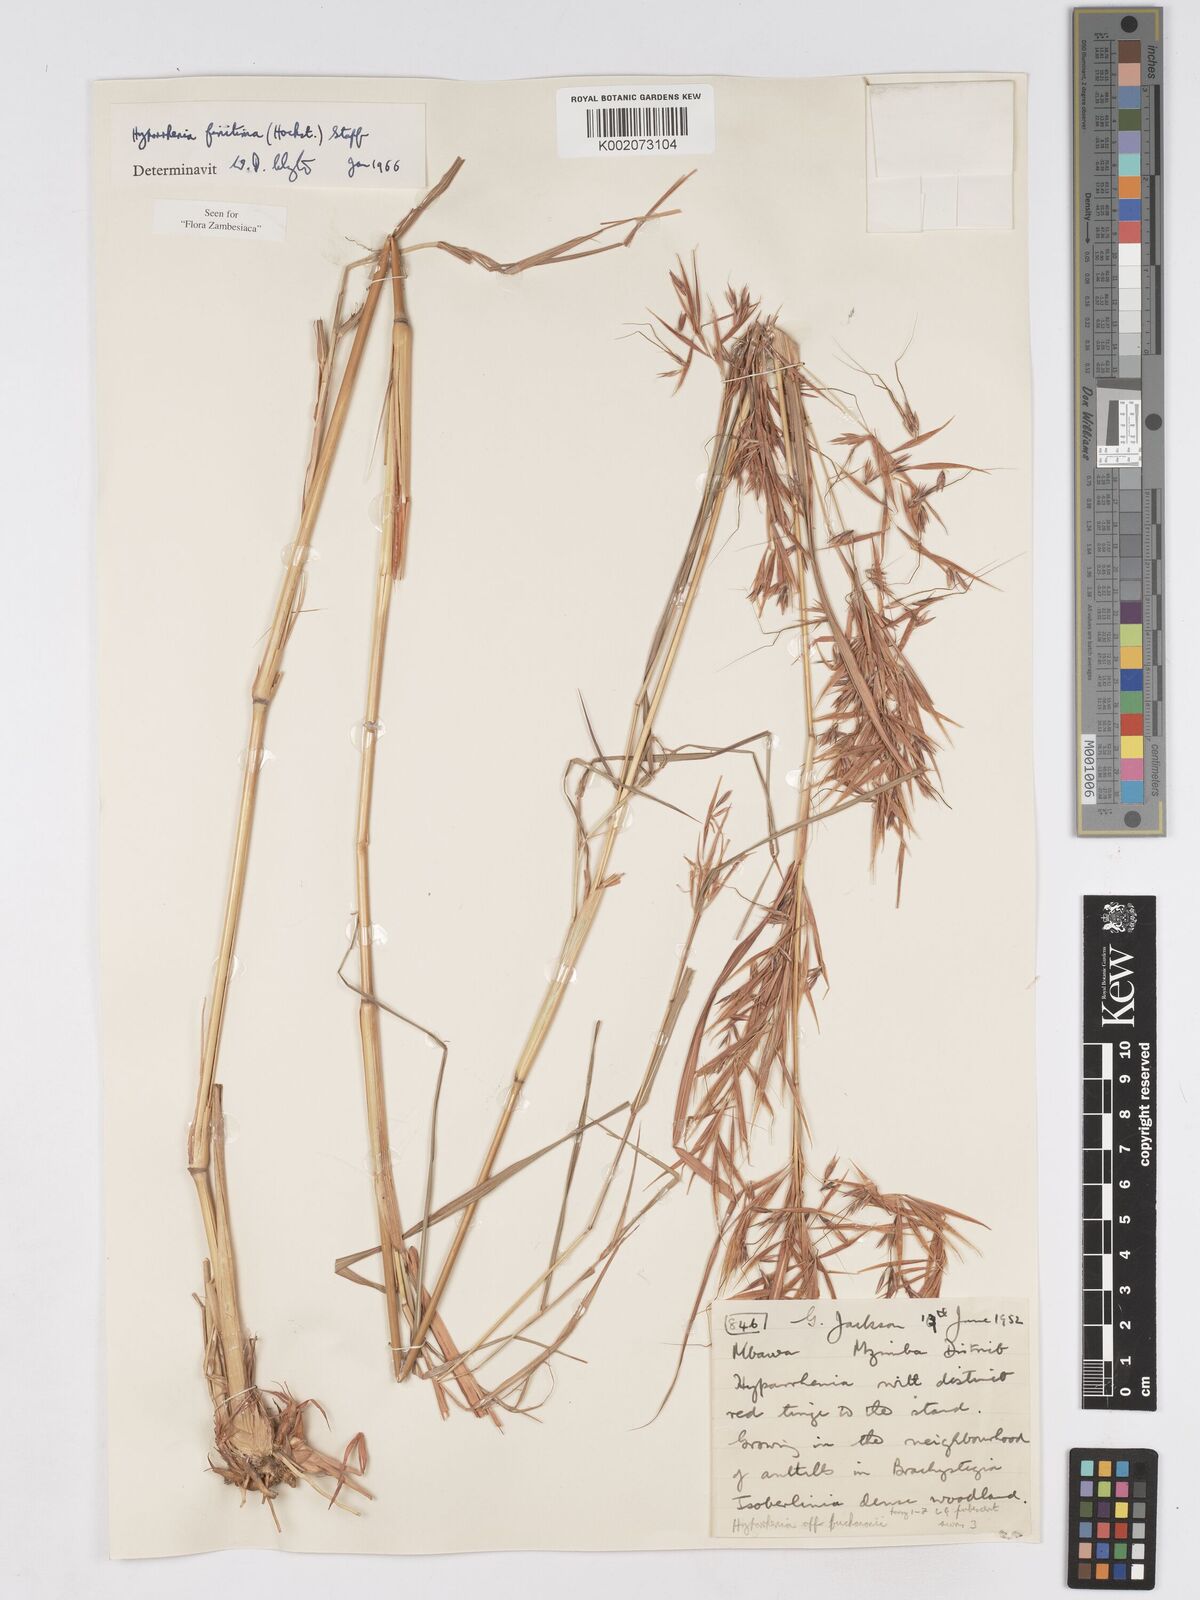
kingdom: Plantae
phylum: Tracheophyta
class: Liliopsida
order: Poales
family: Poaceae
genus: Hyparrhenia
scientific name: Hyparrhenia finitima
